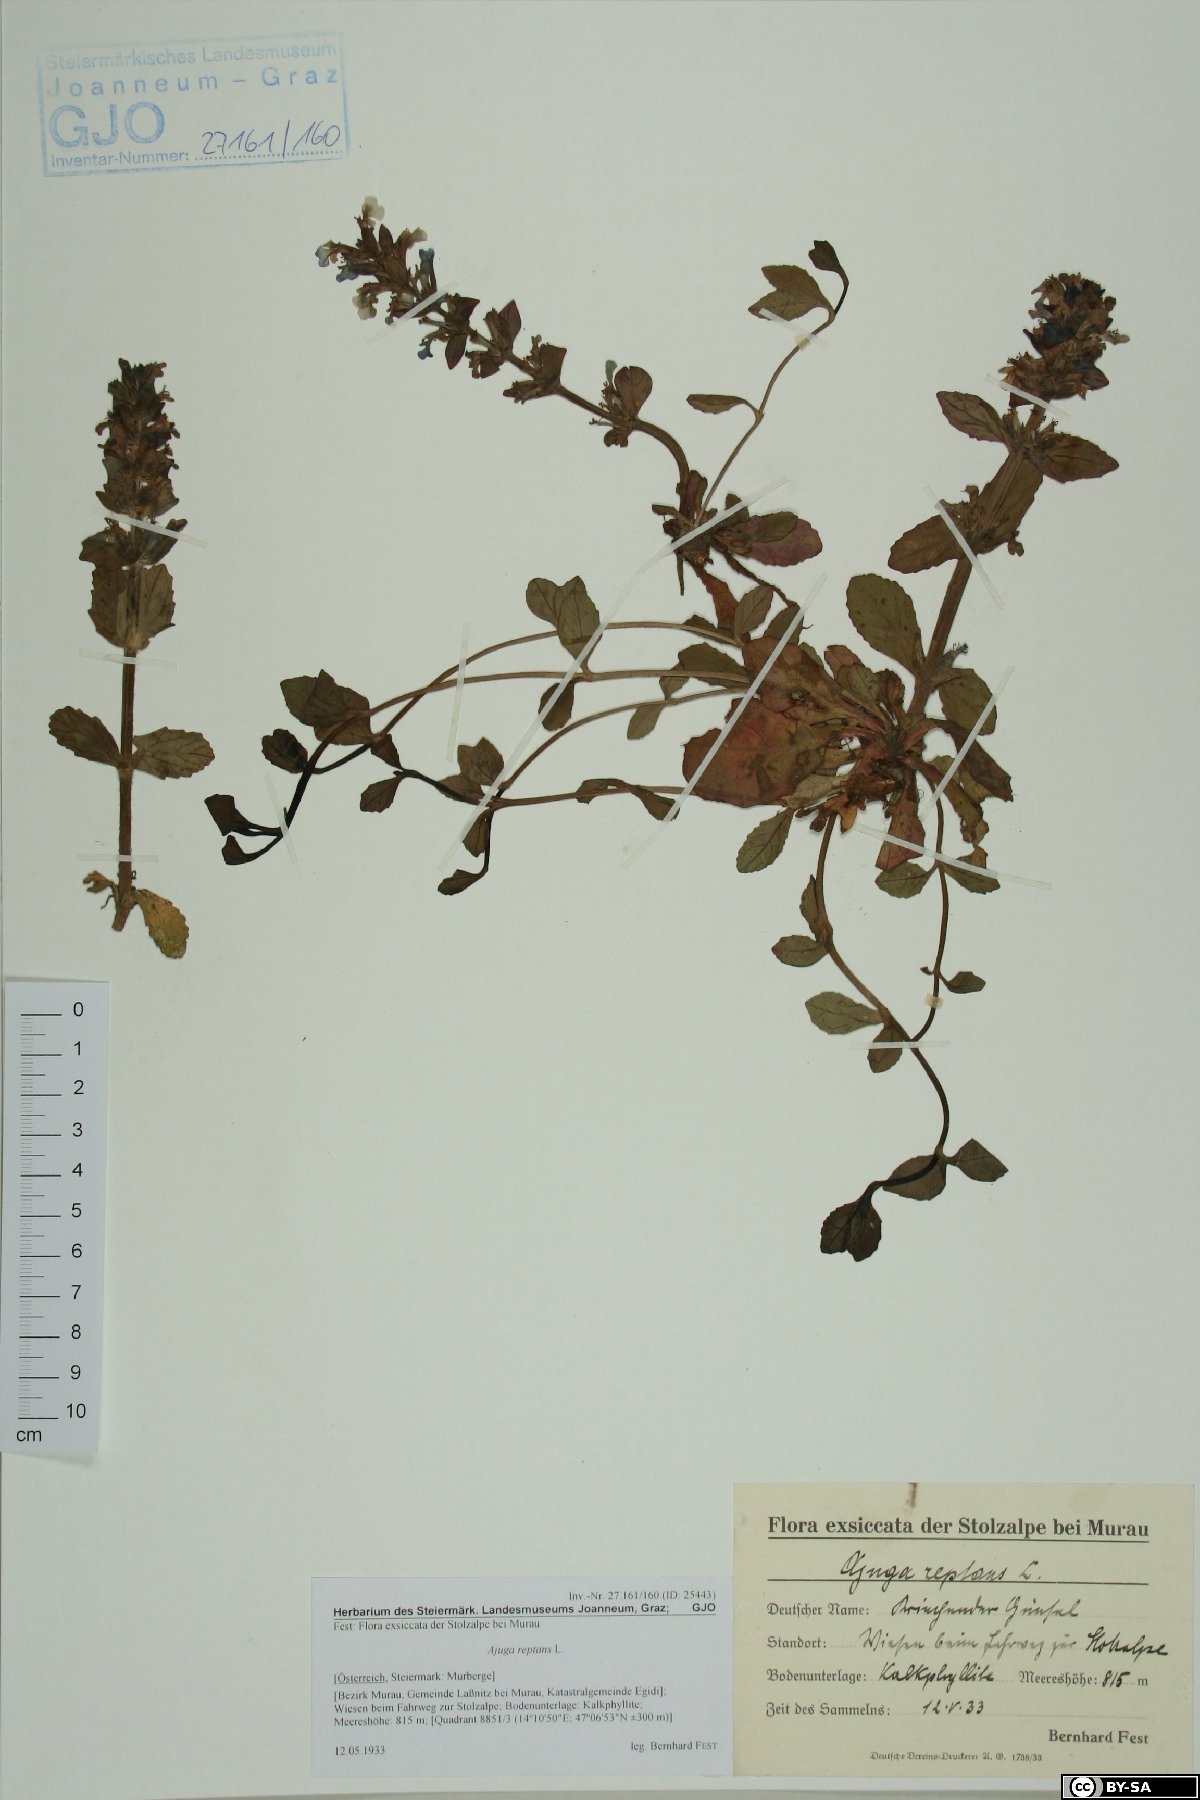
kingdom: Plantae
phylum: Tracheophyta
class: Magnoliopsida
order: Lamiales
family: Lamiaceae
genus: Ajuga
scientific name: Ajuga reptans
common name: Bugle
